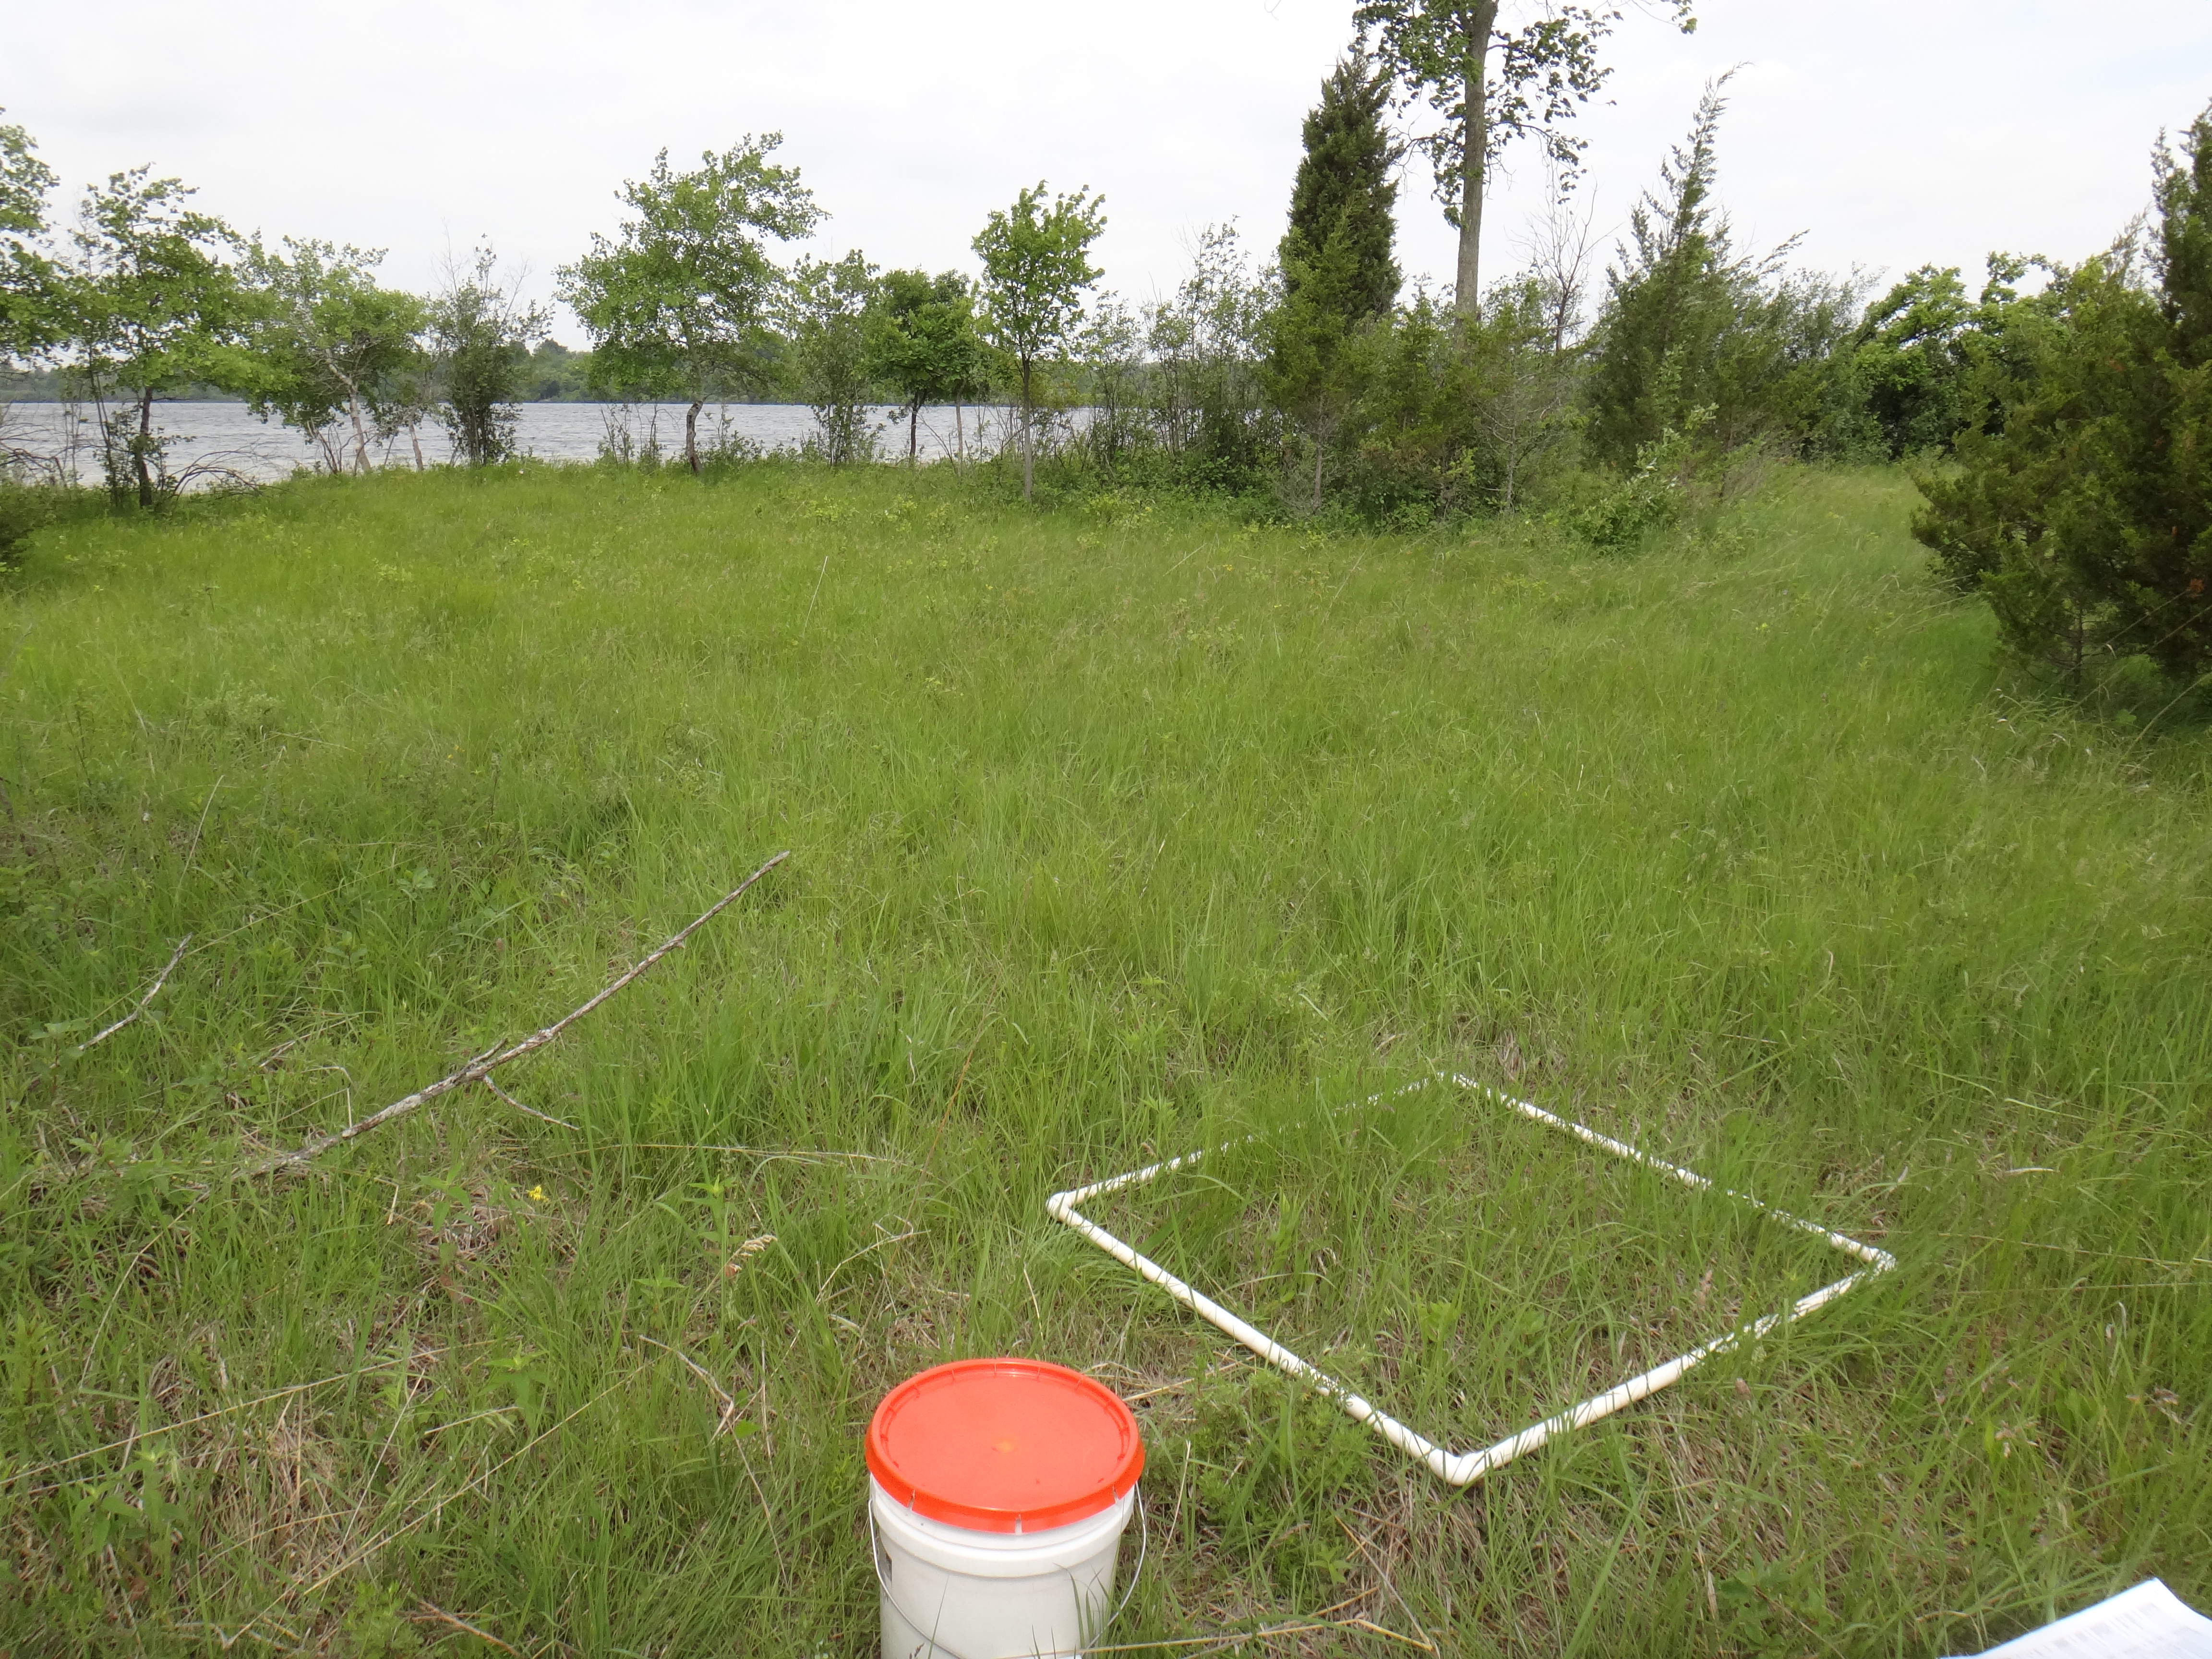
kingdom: Plantae
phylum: Tracheophyta
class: Magnoliopsida
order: Asterales
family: Asteraceae
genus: Packera
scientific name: Packera paupercula
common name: Balsam groundsel
